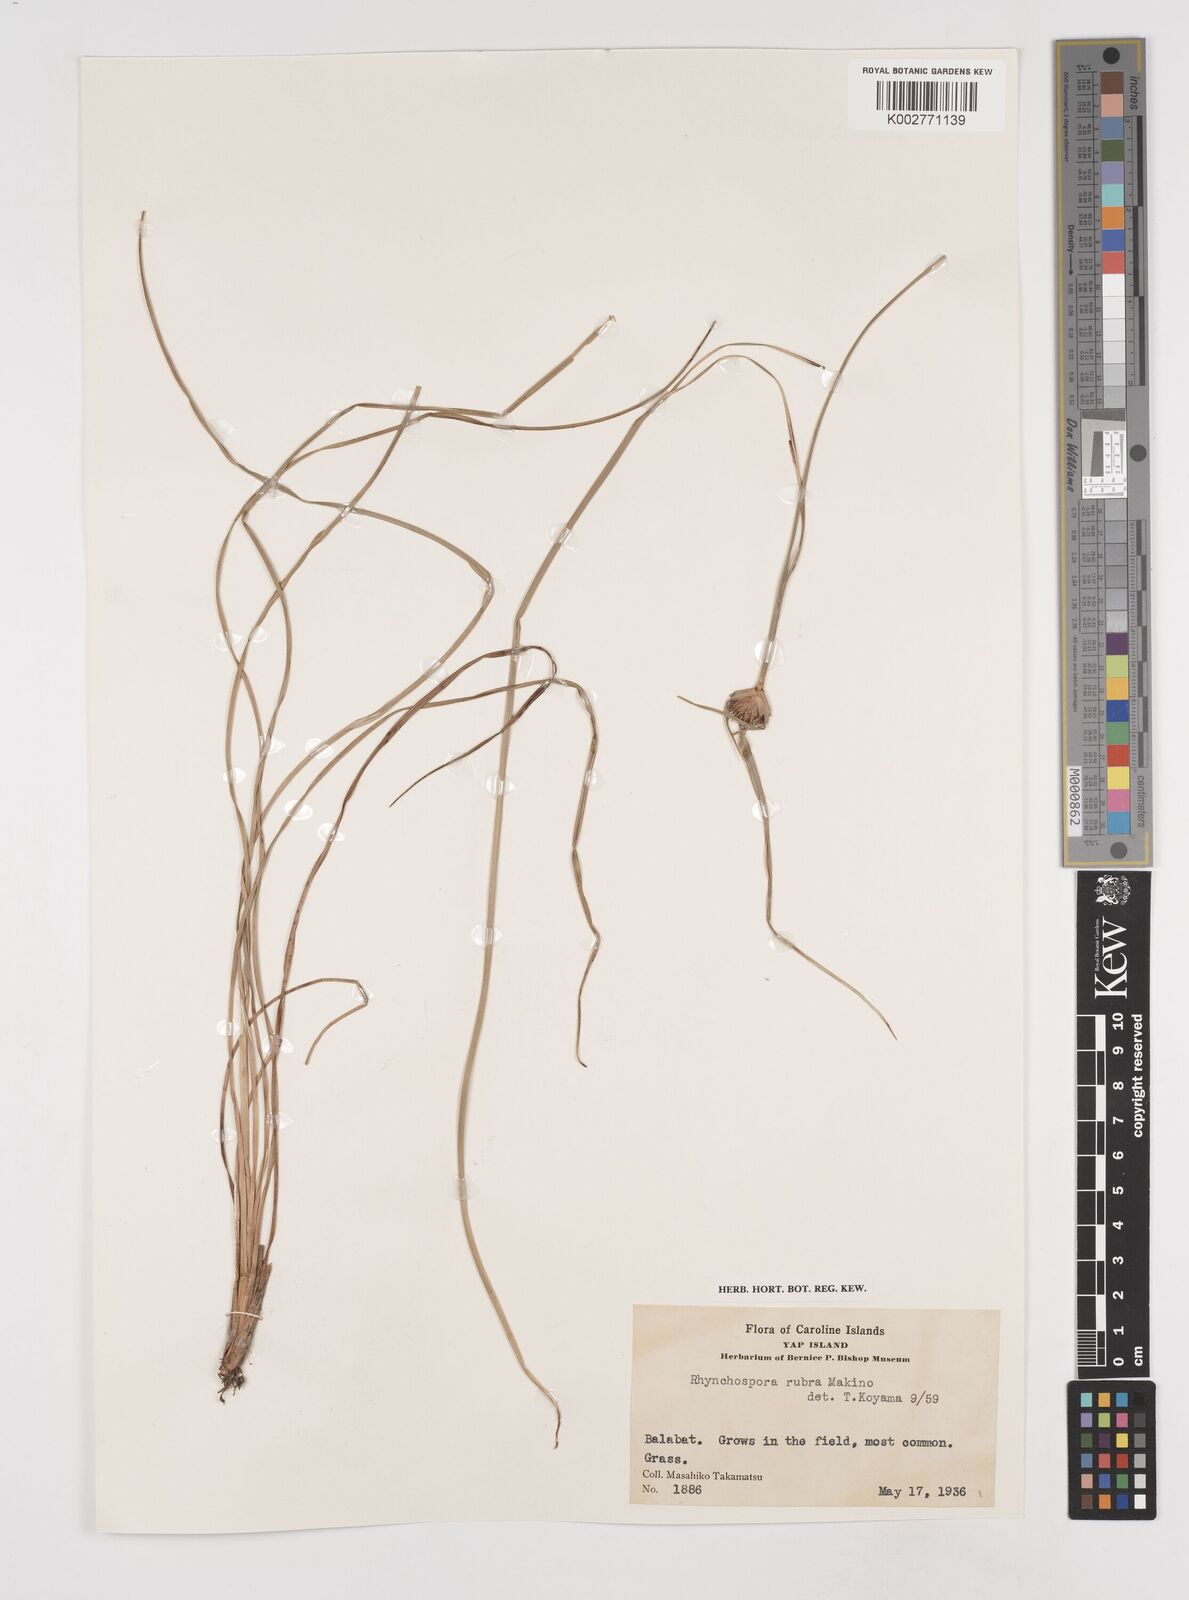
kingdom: Plantae
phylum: Tracheophyta
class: Liliopsida
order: Poales
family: Cyperaceae
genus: Rhynchospora
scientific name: Rhynchospora rubra
